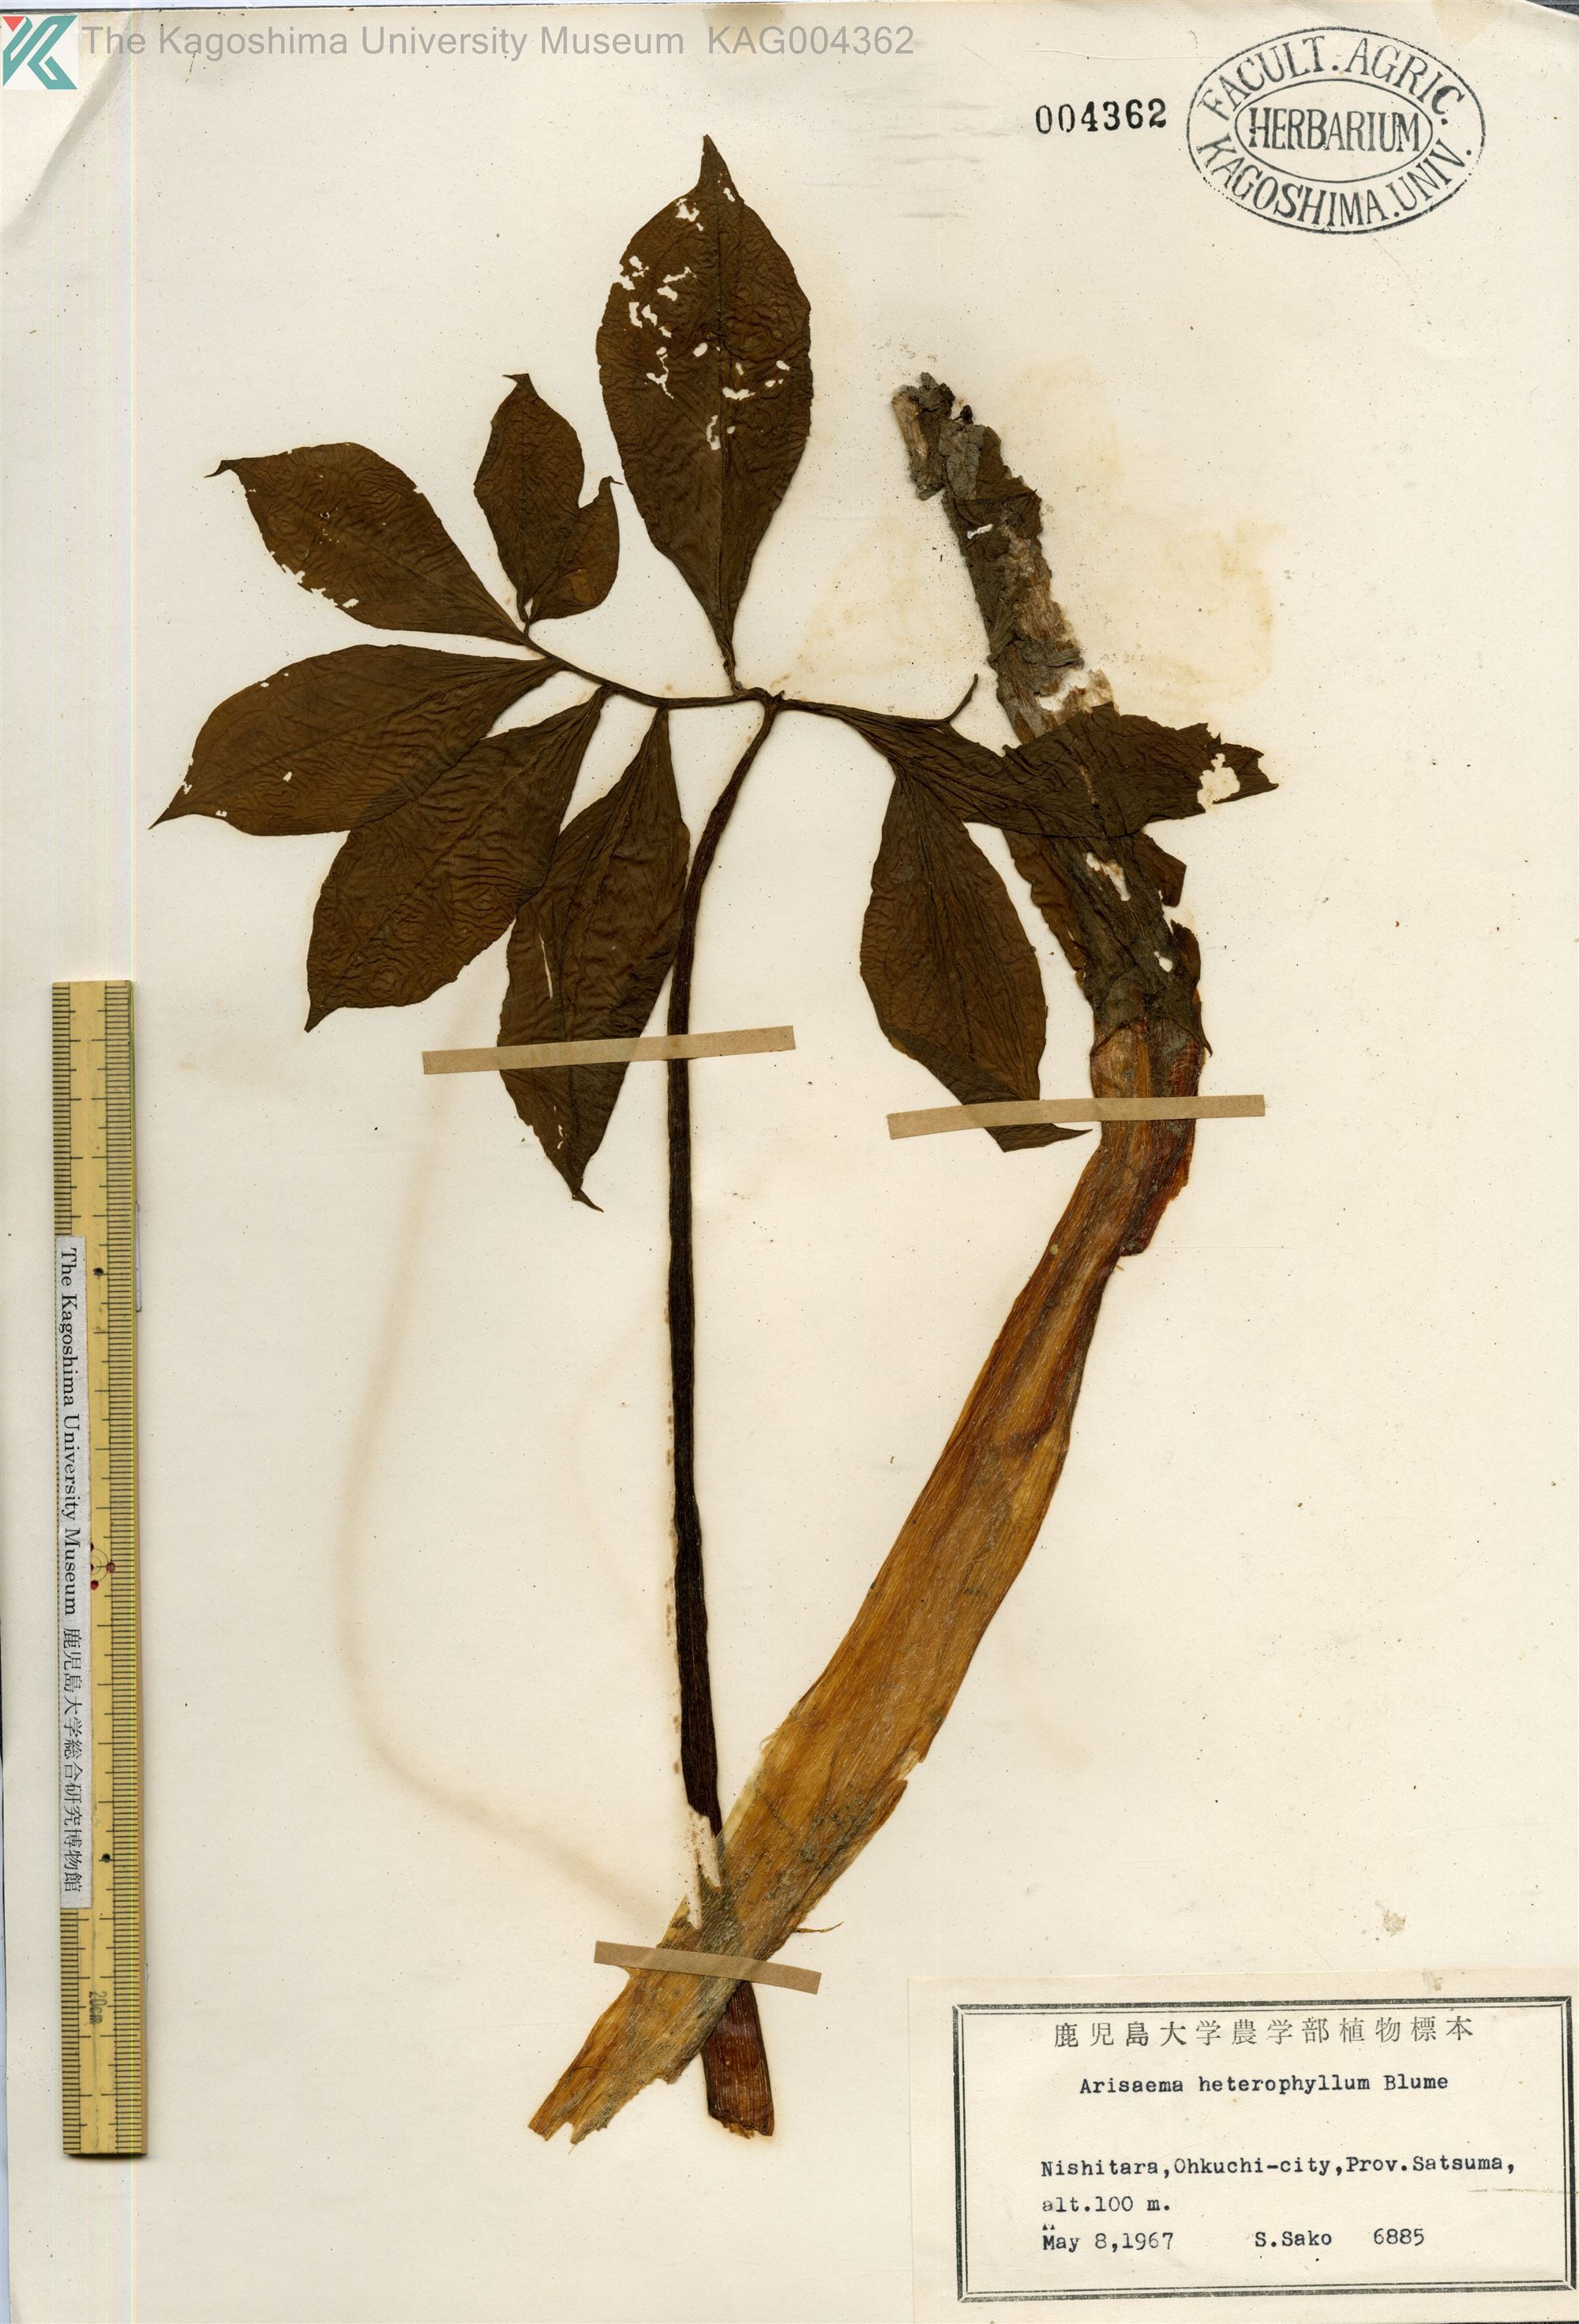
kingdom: Plantae
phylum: Tracheophyta
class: Liliopsida
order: Alismatales
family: Araceae
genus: Arisaema
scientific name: Arisaema heterophyllum
